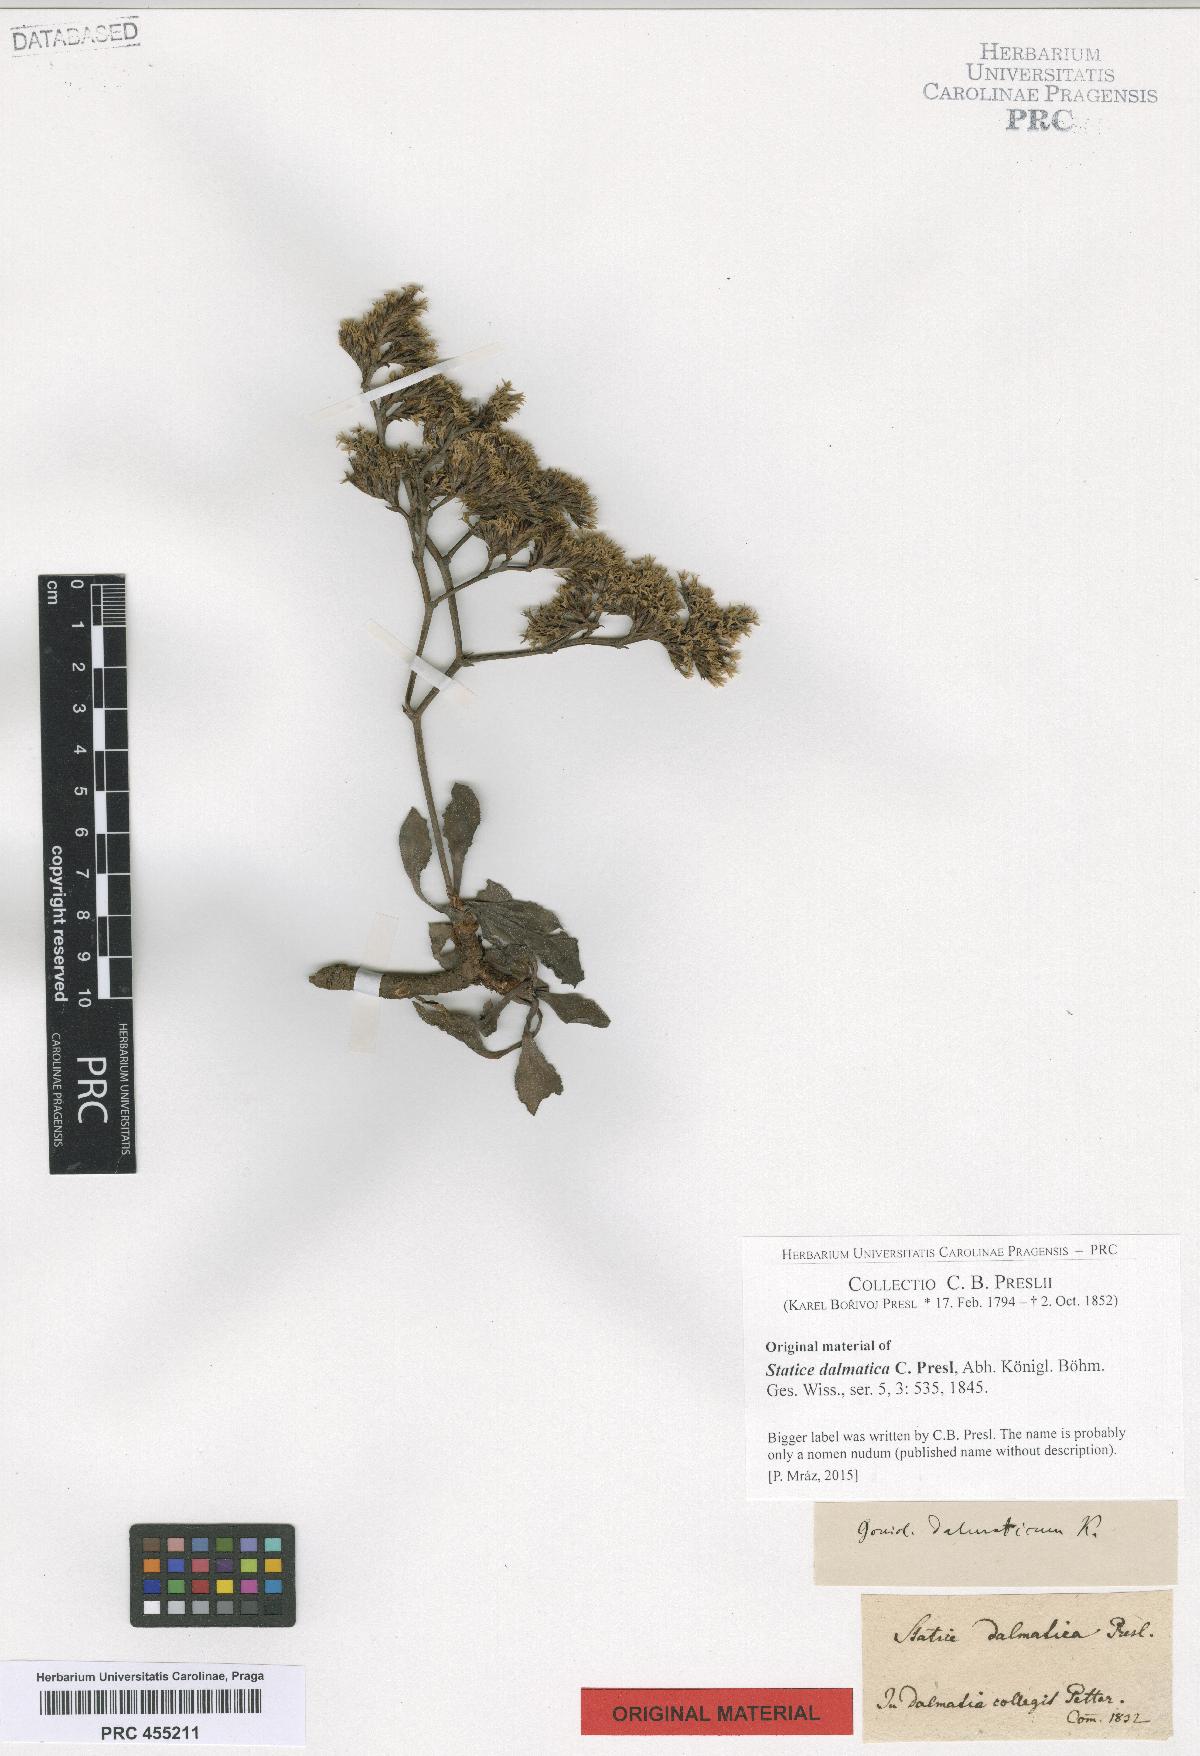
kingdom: Plantae
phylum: Tracheophyta
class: Magnoliopsida
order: Caryophyllales
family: Plumbaginaceae
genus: Armeria
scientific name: Armeria
